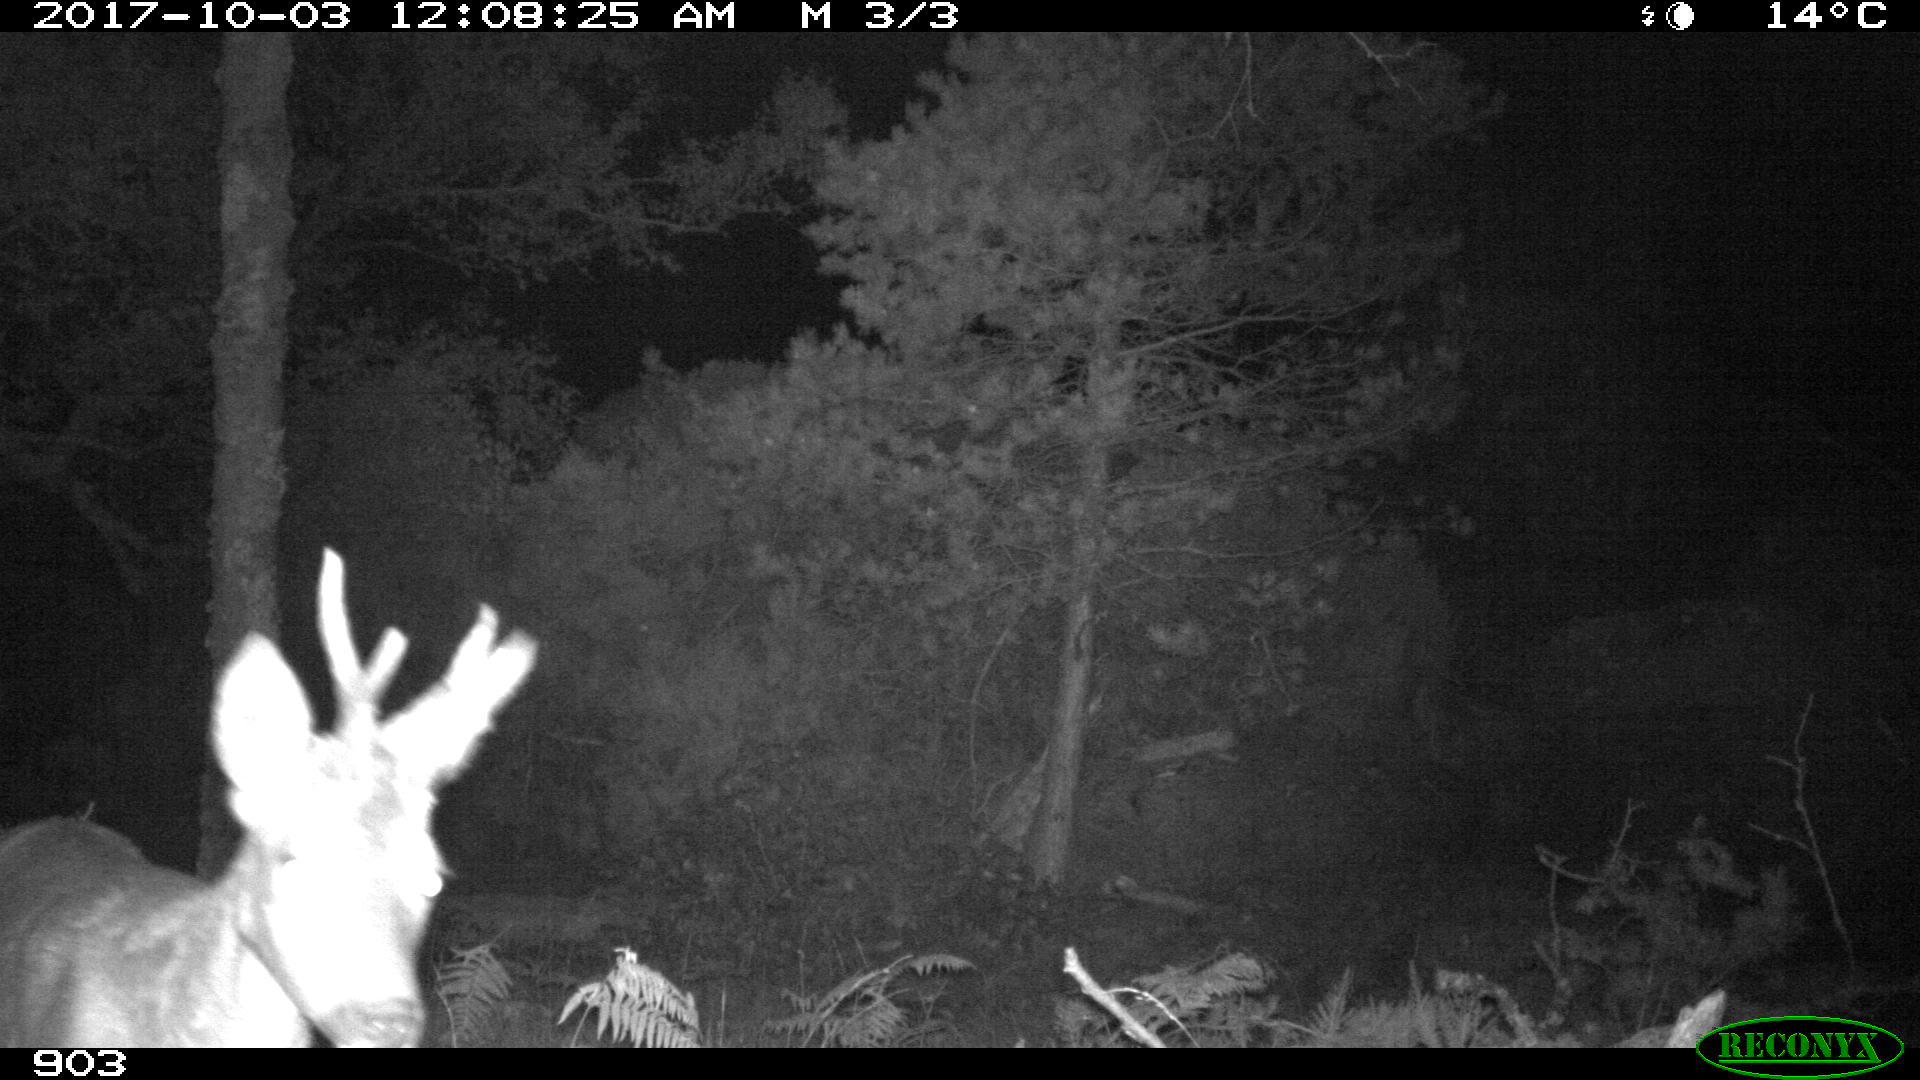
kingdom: Animalia
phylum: Chordata
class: Mammalia
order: Artiodactyla
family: Cervidae
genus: Capreolus
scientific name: Capreolus capreolus
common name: Western roe deer
